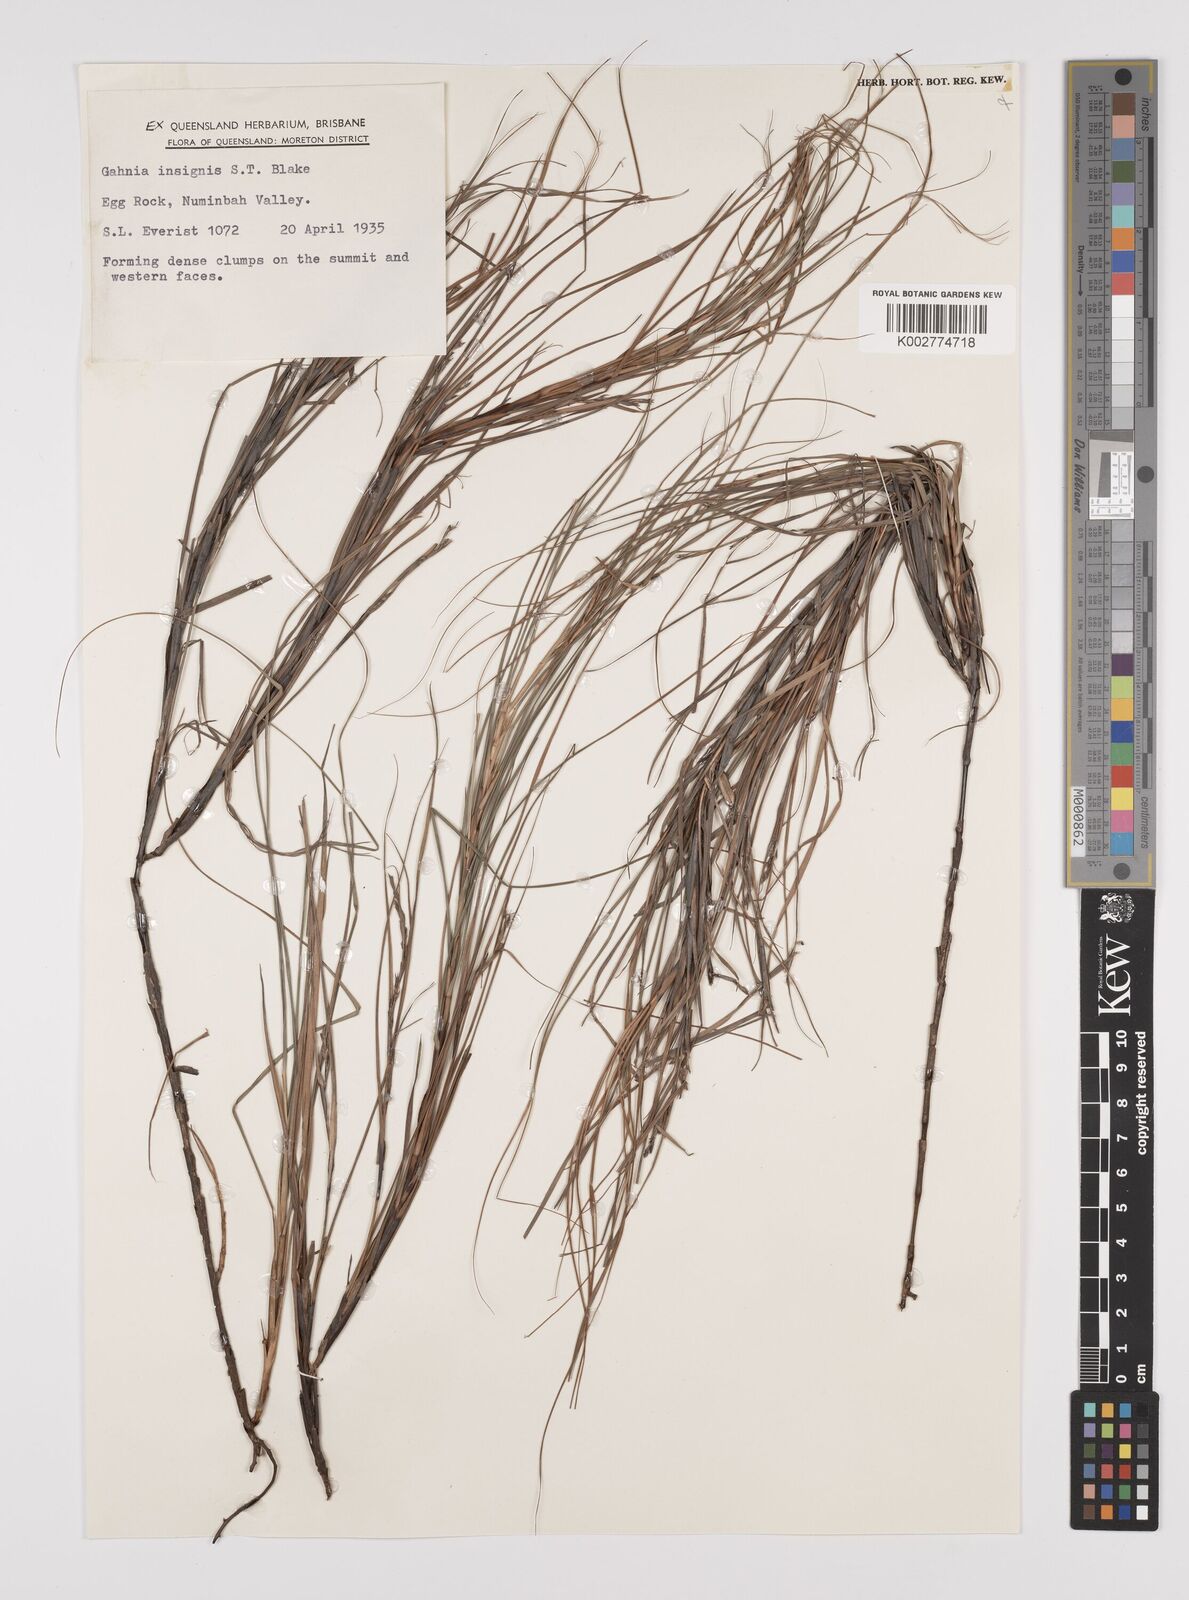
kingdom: Plantae
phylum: Tracheophyta
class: Liliopsida
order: Poales
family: Cyperaceae
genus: Gahnia
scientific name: Gahnia insignis
